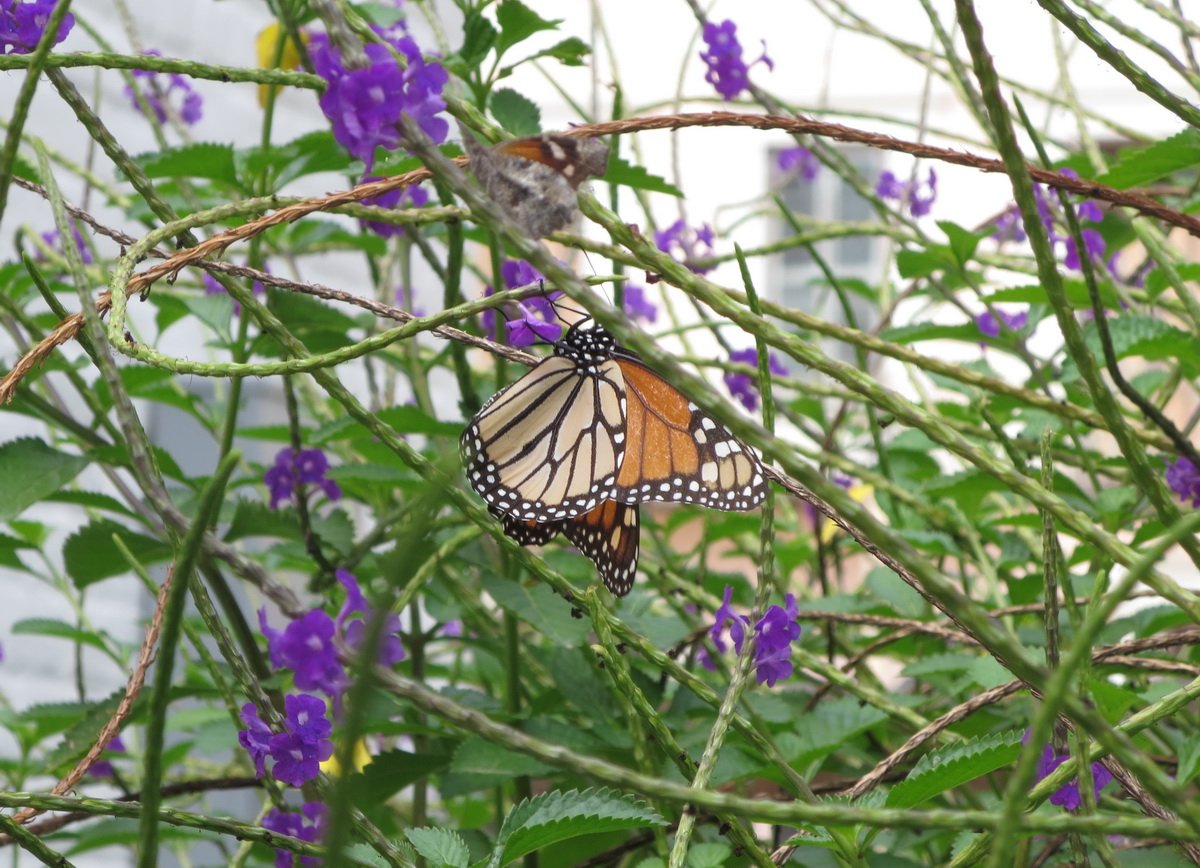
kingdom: Animalia
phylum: Arthropoda
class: Insecta
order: Lepidoptera
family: Nymphalidae
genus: Danaus
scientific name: Danaus plexippus
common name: Monarch
